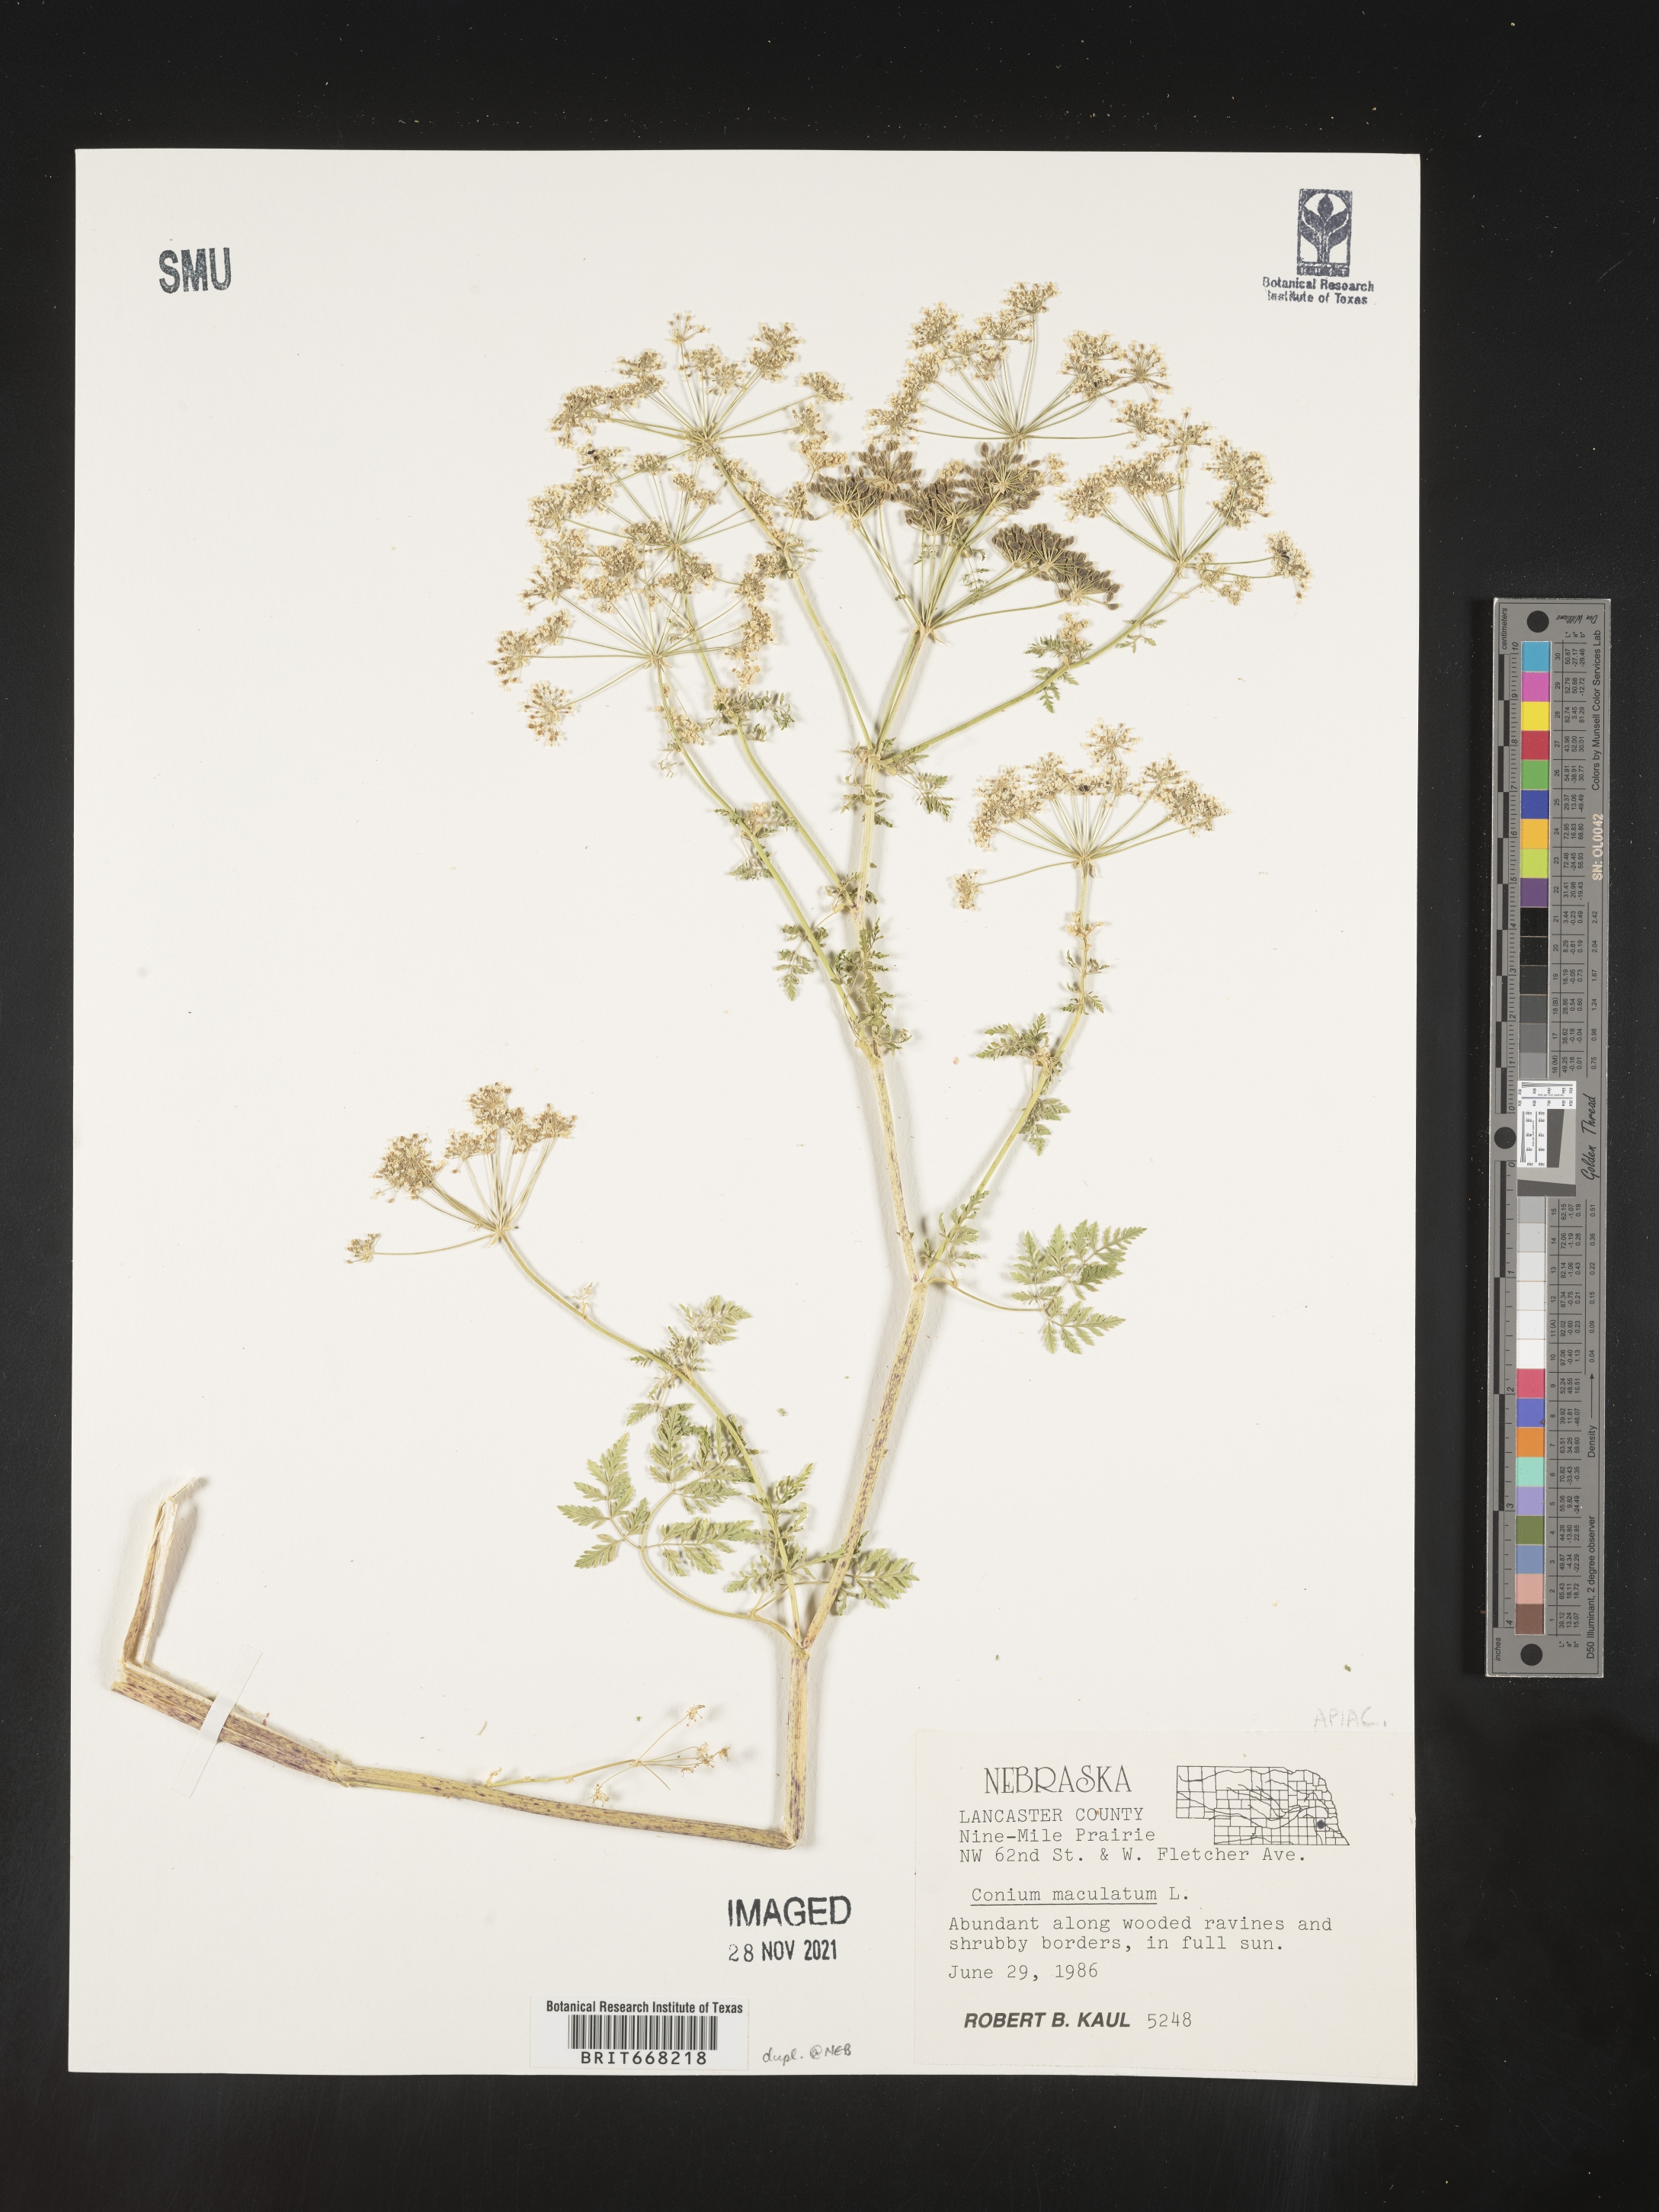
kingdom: Plantae
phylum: Tracheophyta
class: Magnoliopsida
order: Apiales
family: Apiaceae
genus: Conium
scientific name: Conium maculatum
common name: Hemlock
